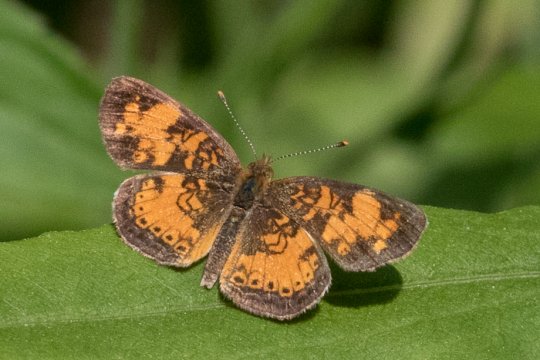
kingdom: Animalia
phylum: Arthropoda
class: Insecta
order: Lepidoptera
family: Nymphalidae
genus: Phyciodes
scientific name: Phyciodes tharos
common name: Northern Crescent
